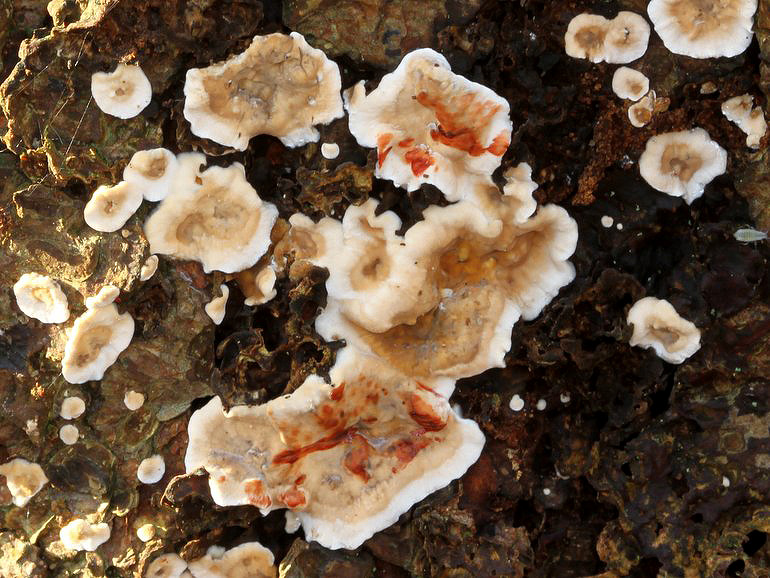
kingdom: Fungi
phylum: Basidiomycota
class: Agaricomycetes
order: Russulales
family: Stereaceae
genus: Stereum
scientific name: Stereum rugosum
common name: rynket lædersvamp
